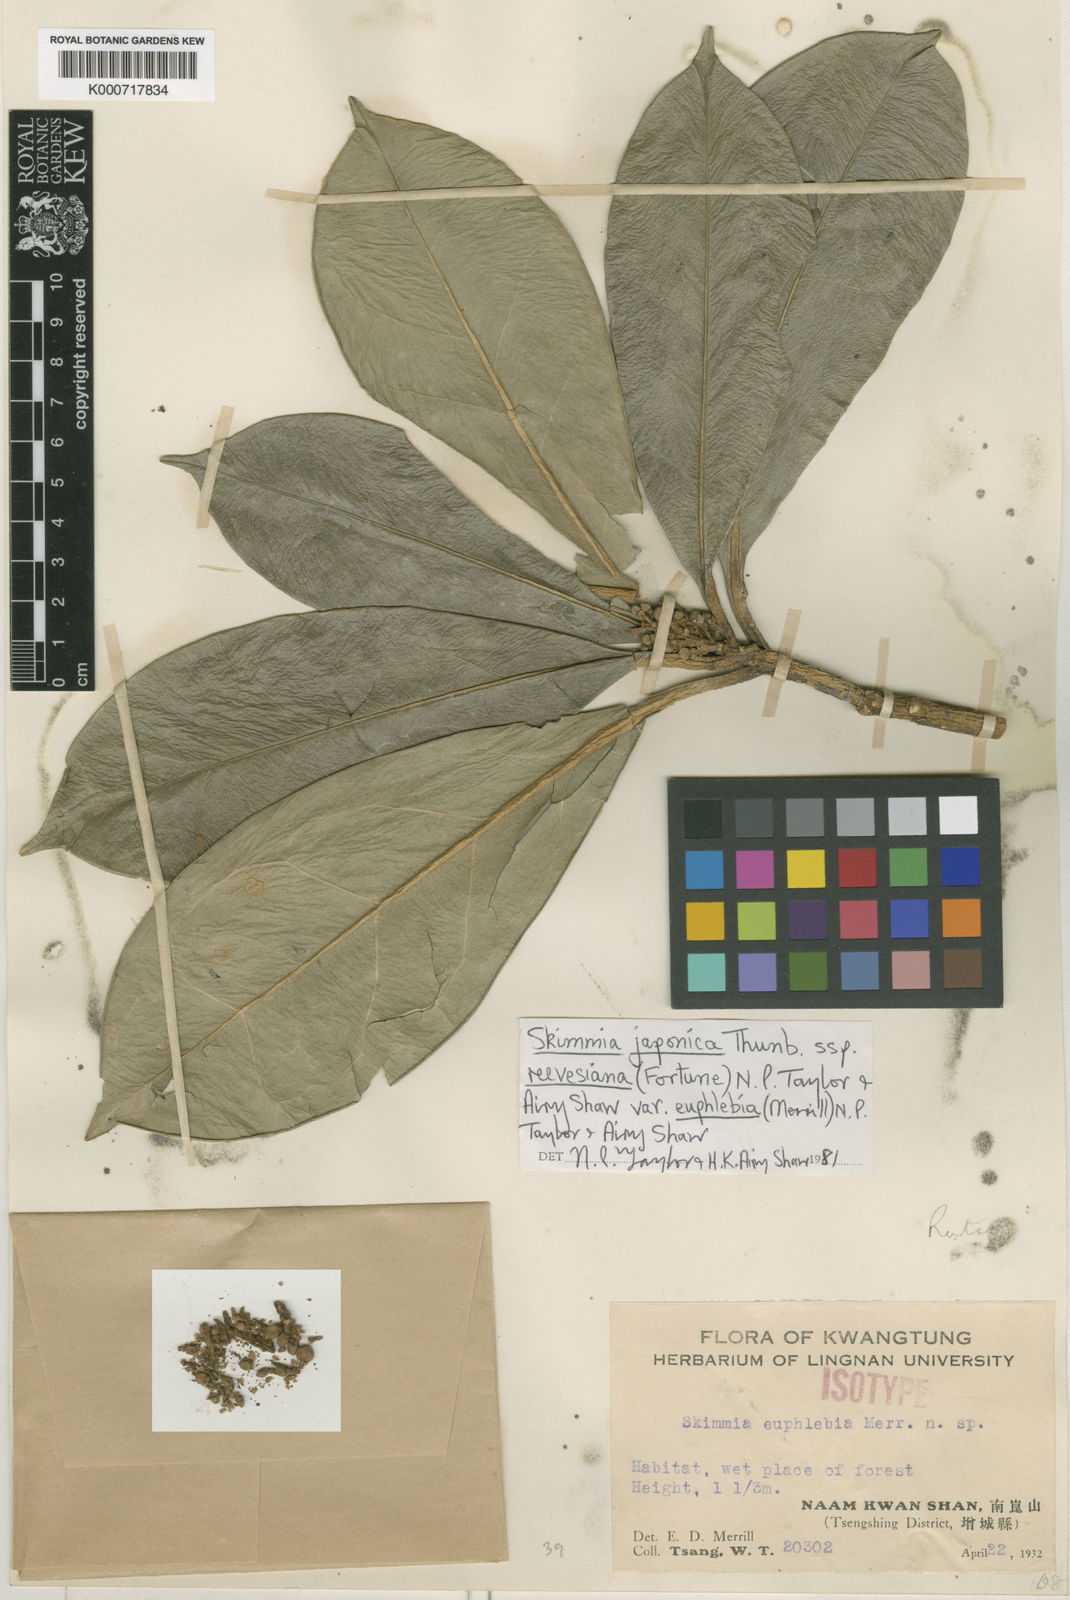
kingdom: Plantae
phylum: Tracheophyta
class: Magnoliopsida
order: Sapindales
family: Rutaceae
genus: Skimmia
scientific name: Skimmia reevesiana
